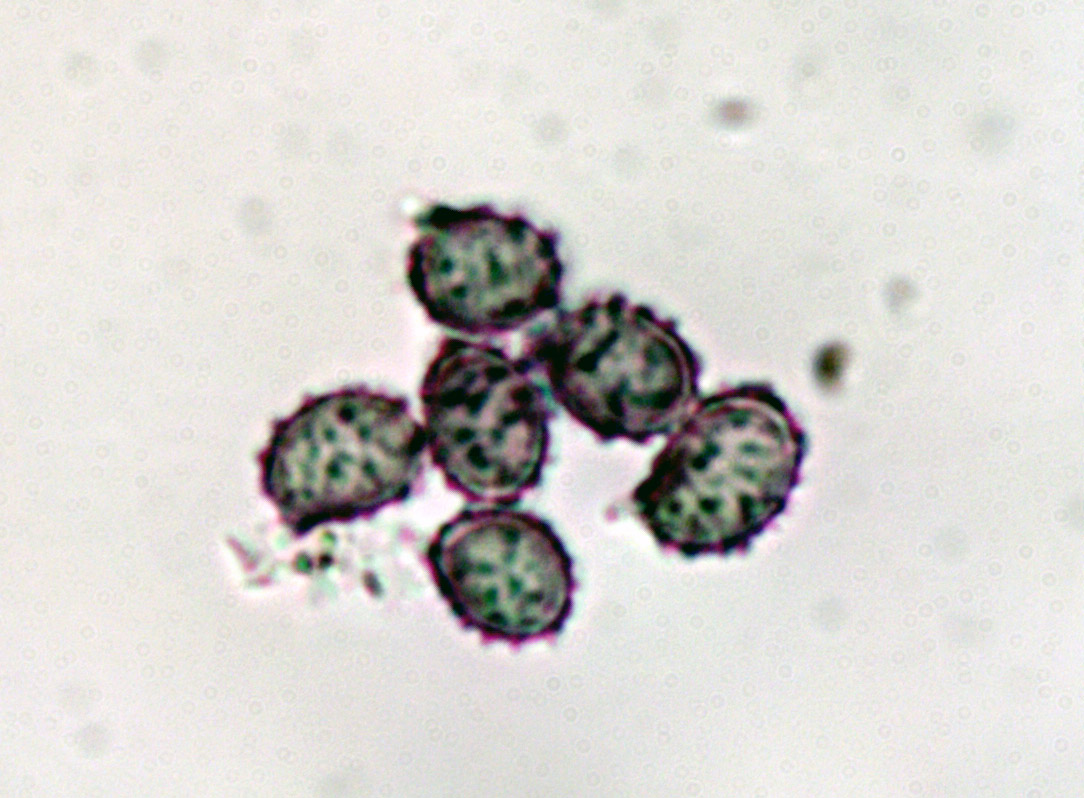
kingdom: Fungi
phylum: Basidiomycota
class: Agaricomycetes
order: Russulales
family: Russulaceae
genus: Russula
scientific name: Russula
